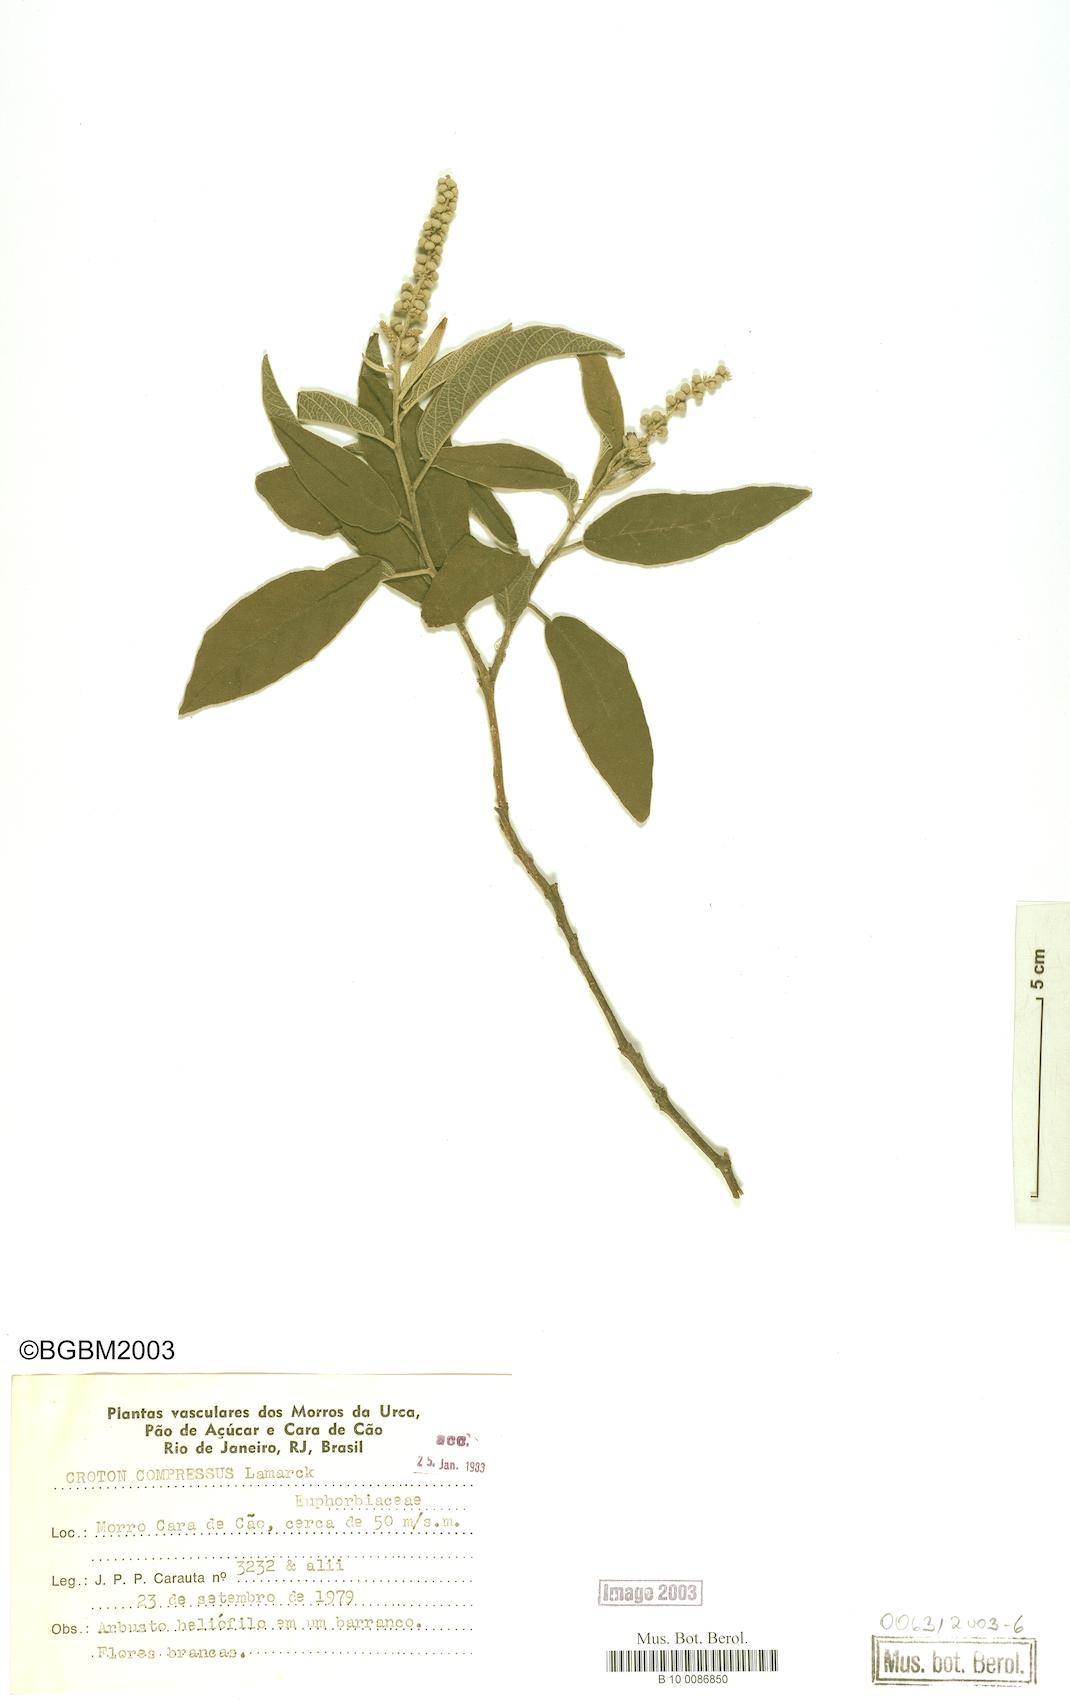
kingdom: Plantae
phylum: Tracheophyta
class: Magnoliopsida
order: Malpighiales
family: Euphorbiaceae
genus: Croton
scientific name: Croton compressus
